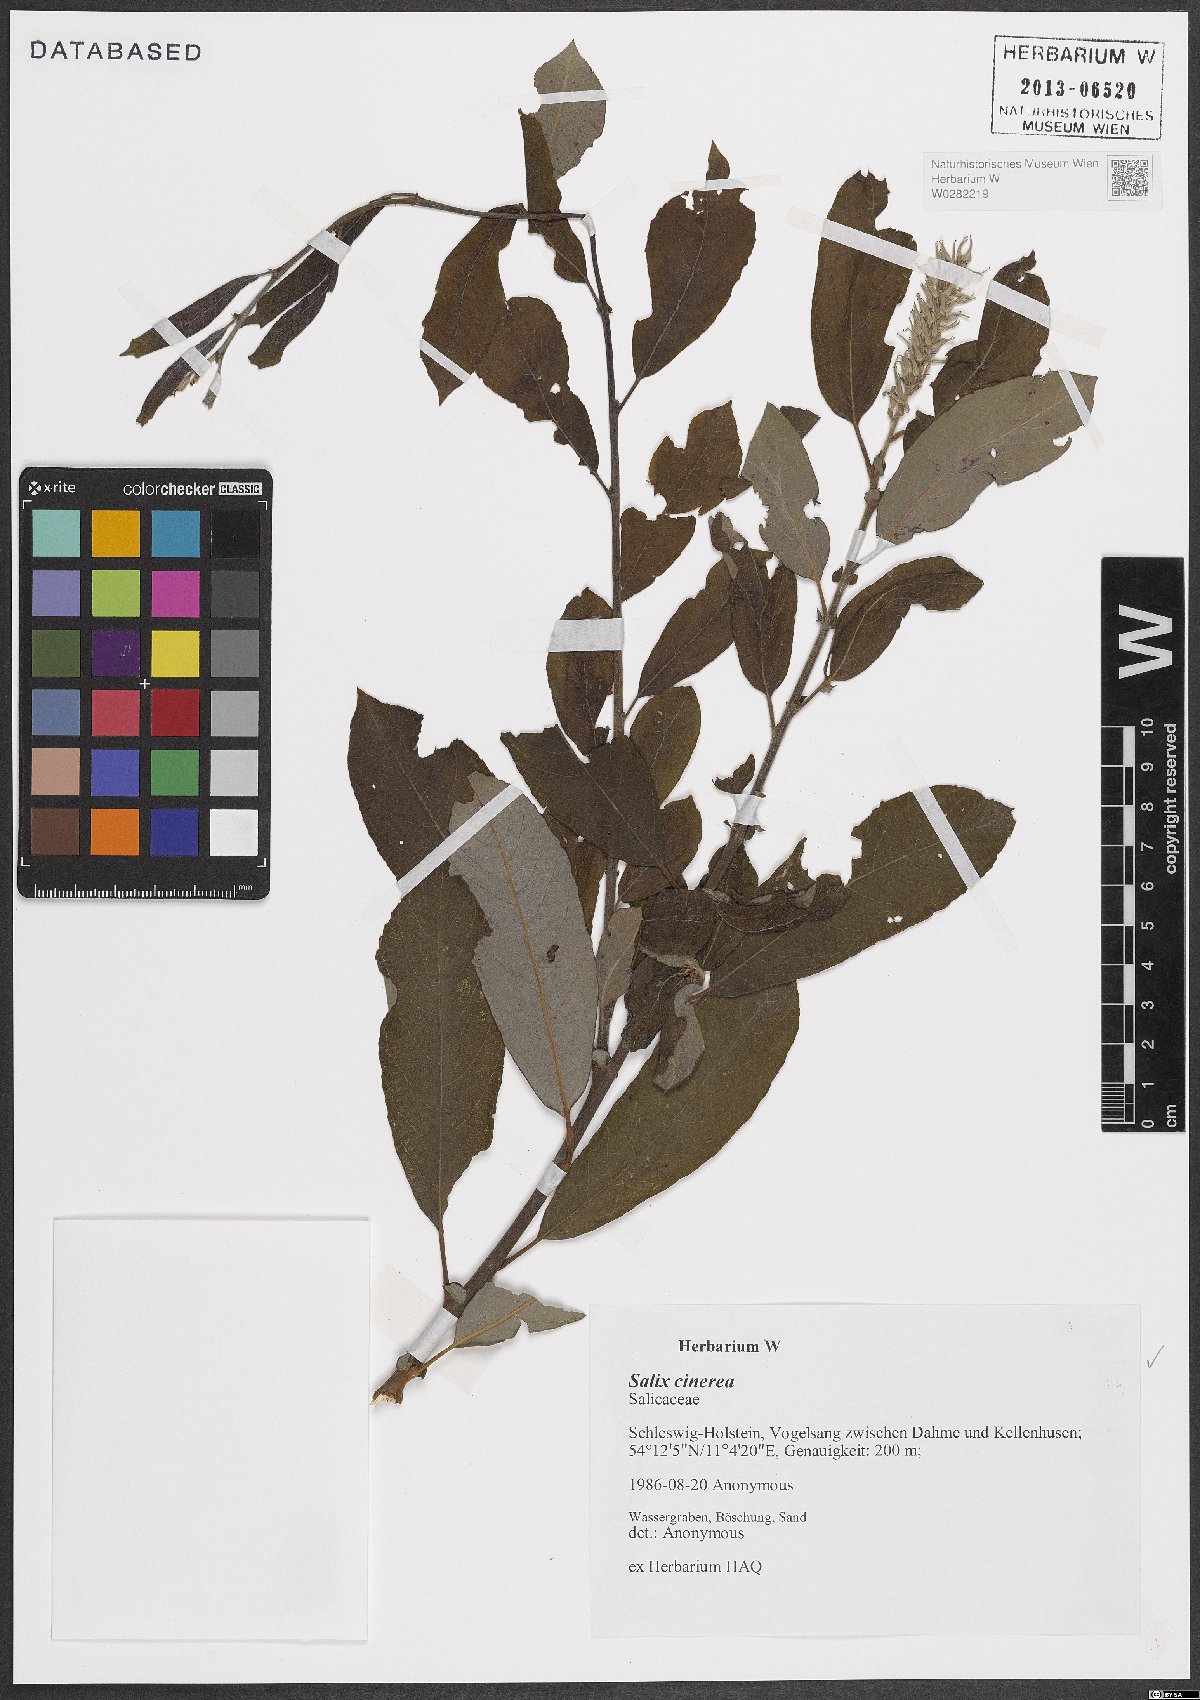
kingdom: Plantae
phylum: Tracheophyta
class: Magnoliopsida
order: Malpighiales
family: Salicaceae
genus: Salix
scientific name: Salix cinerea
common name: Common sallow
